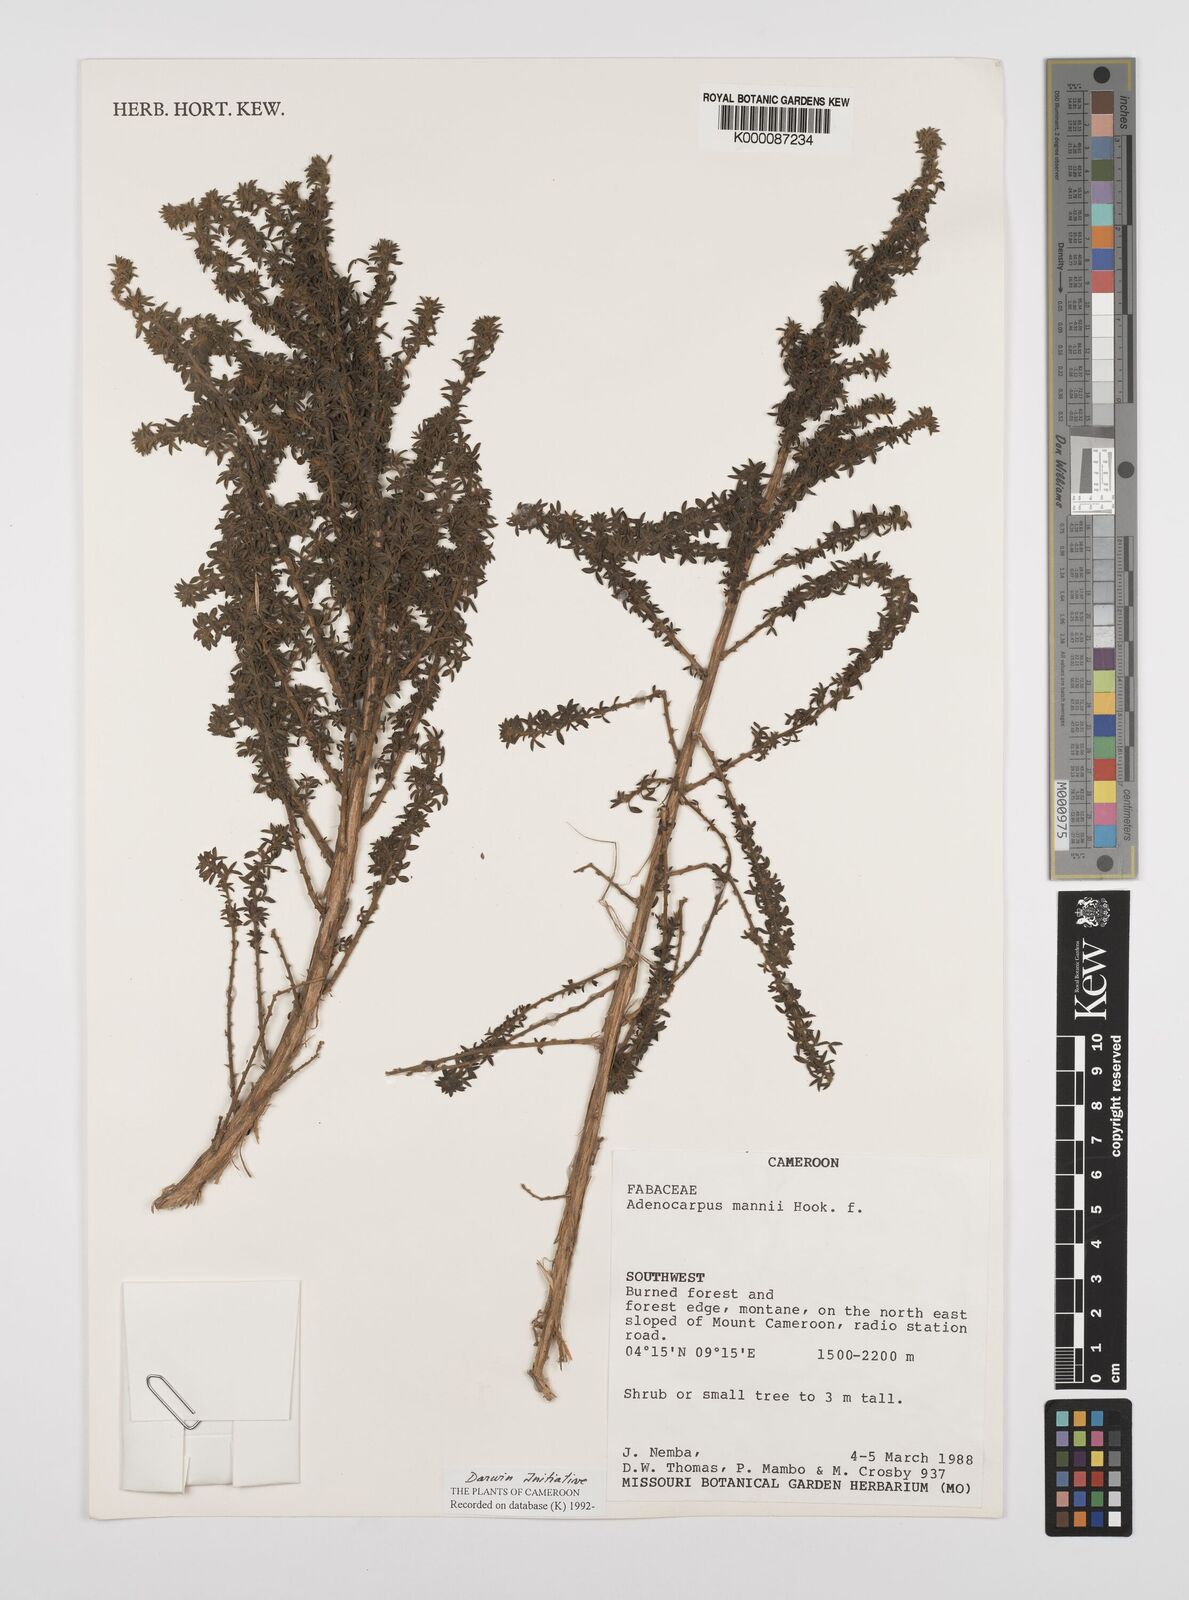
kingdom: Plantae
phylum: Tracheophyta
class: Magnoliopsida
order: Fabales
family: Fabaceae
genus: Adenocarpus
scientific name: Adenocarpus mannii
